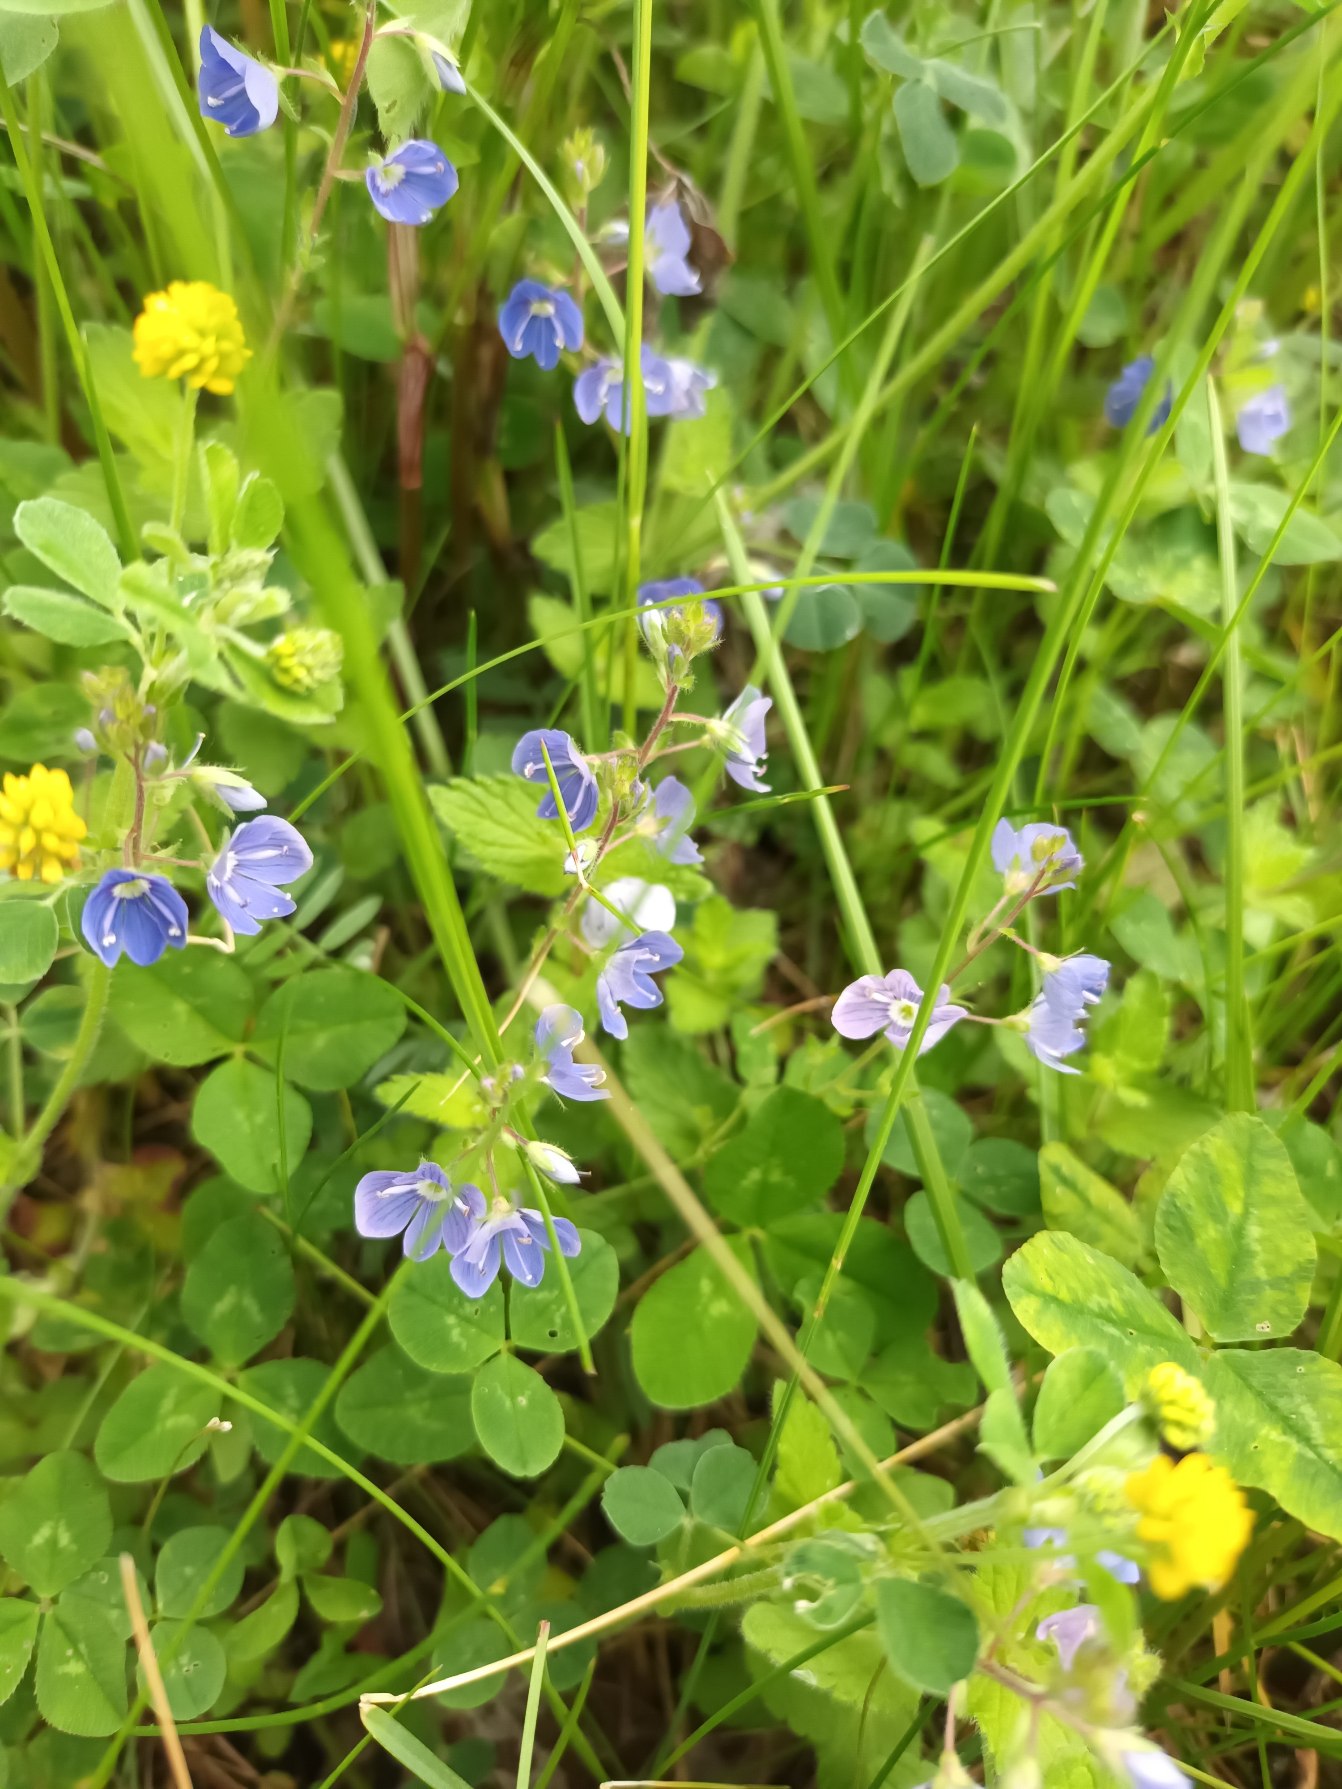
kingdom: Plantae
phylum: Tracheophyta
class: Magnoliopsida
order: Lamiales
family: Plantaginaceae
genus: Veronica
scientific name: Veronica chamaedrys
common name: Tveskægget ærenpris
